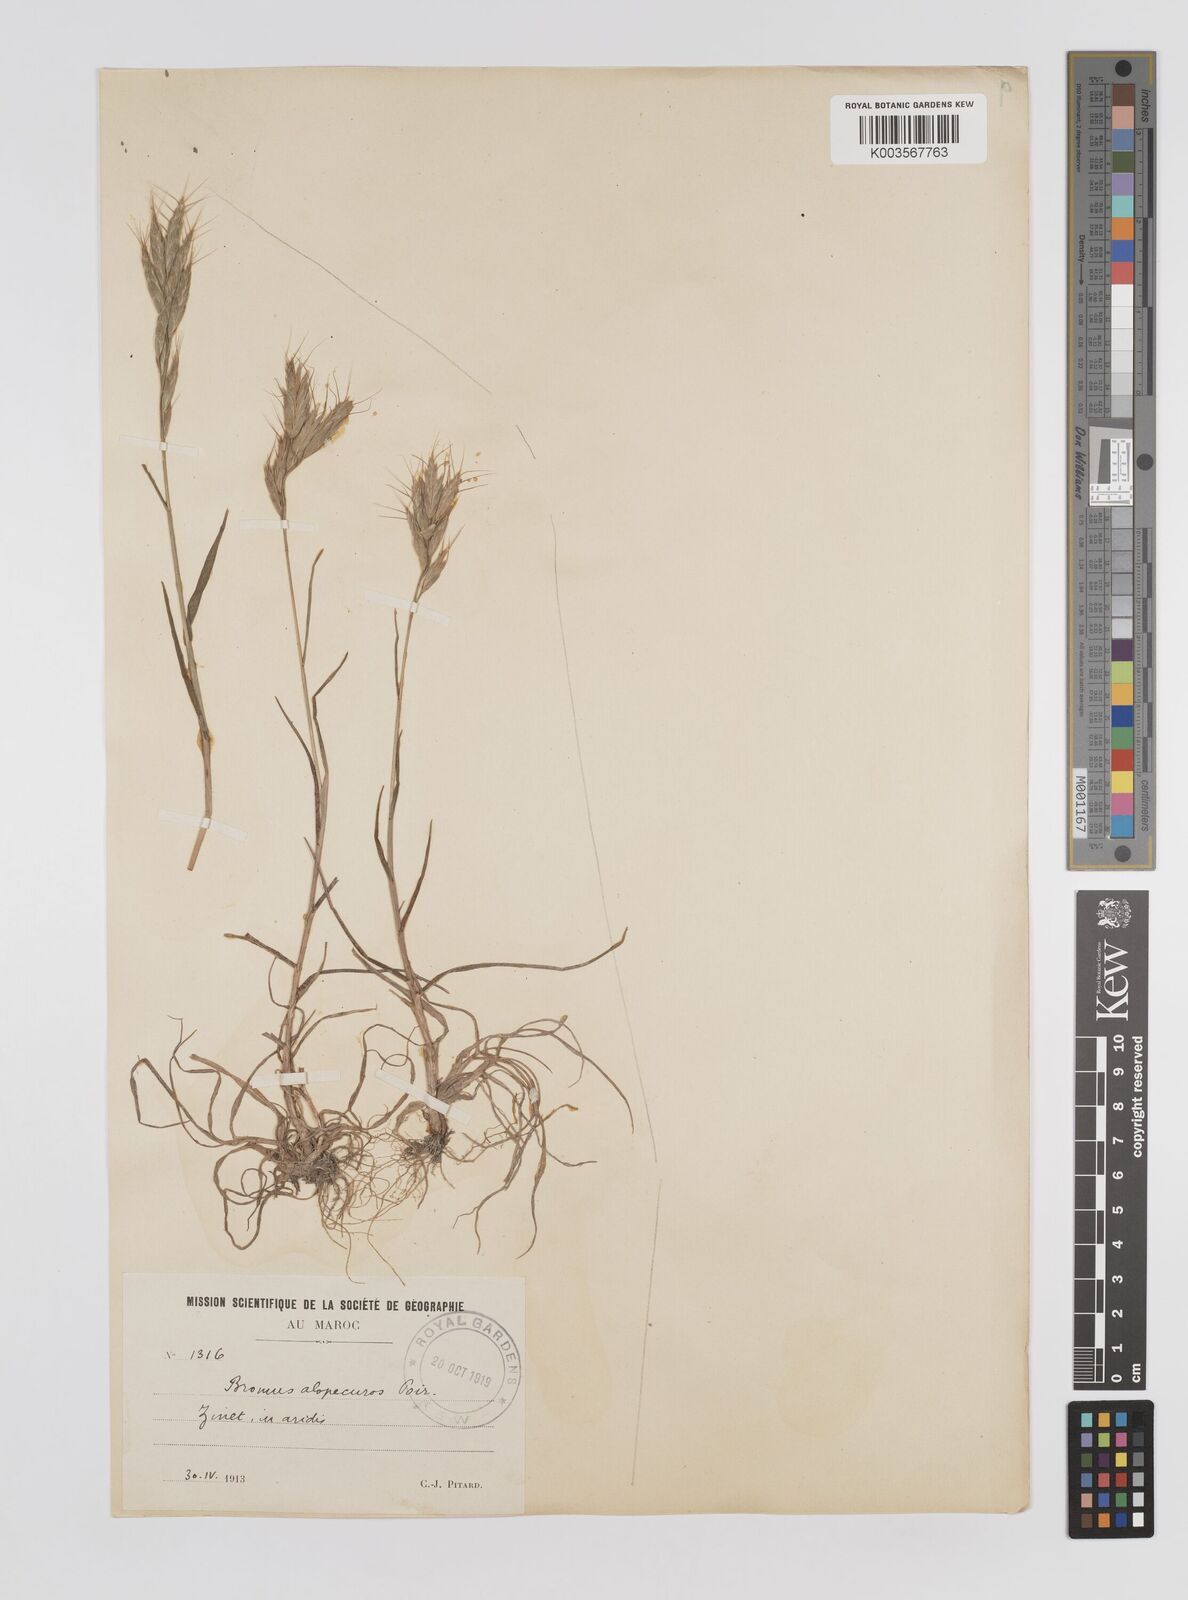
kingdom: Plantae
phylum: Tracheophyta
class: Liliopsida
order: Poales
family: Poaceae
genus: Bromus
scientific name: Bromus alopecuros
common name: Weedy brome
